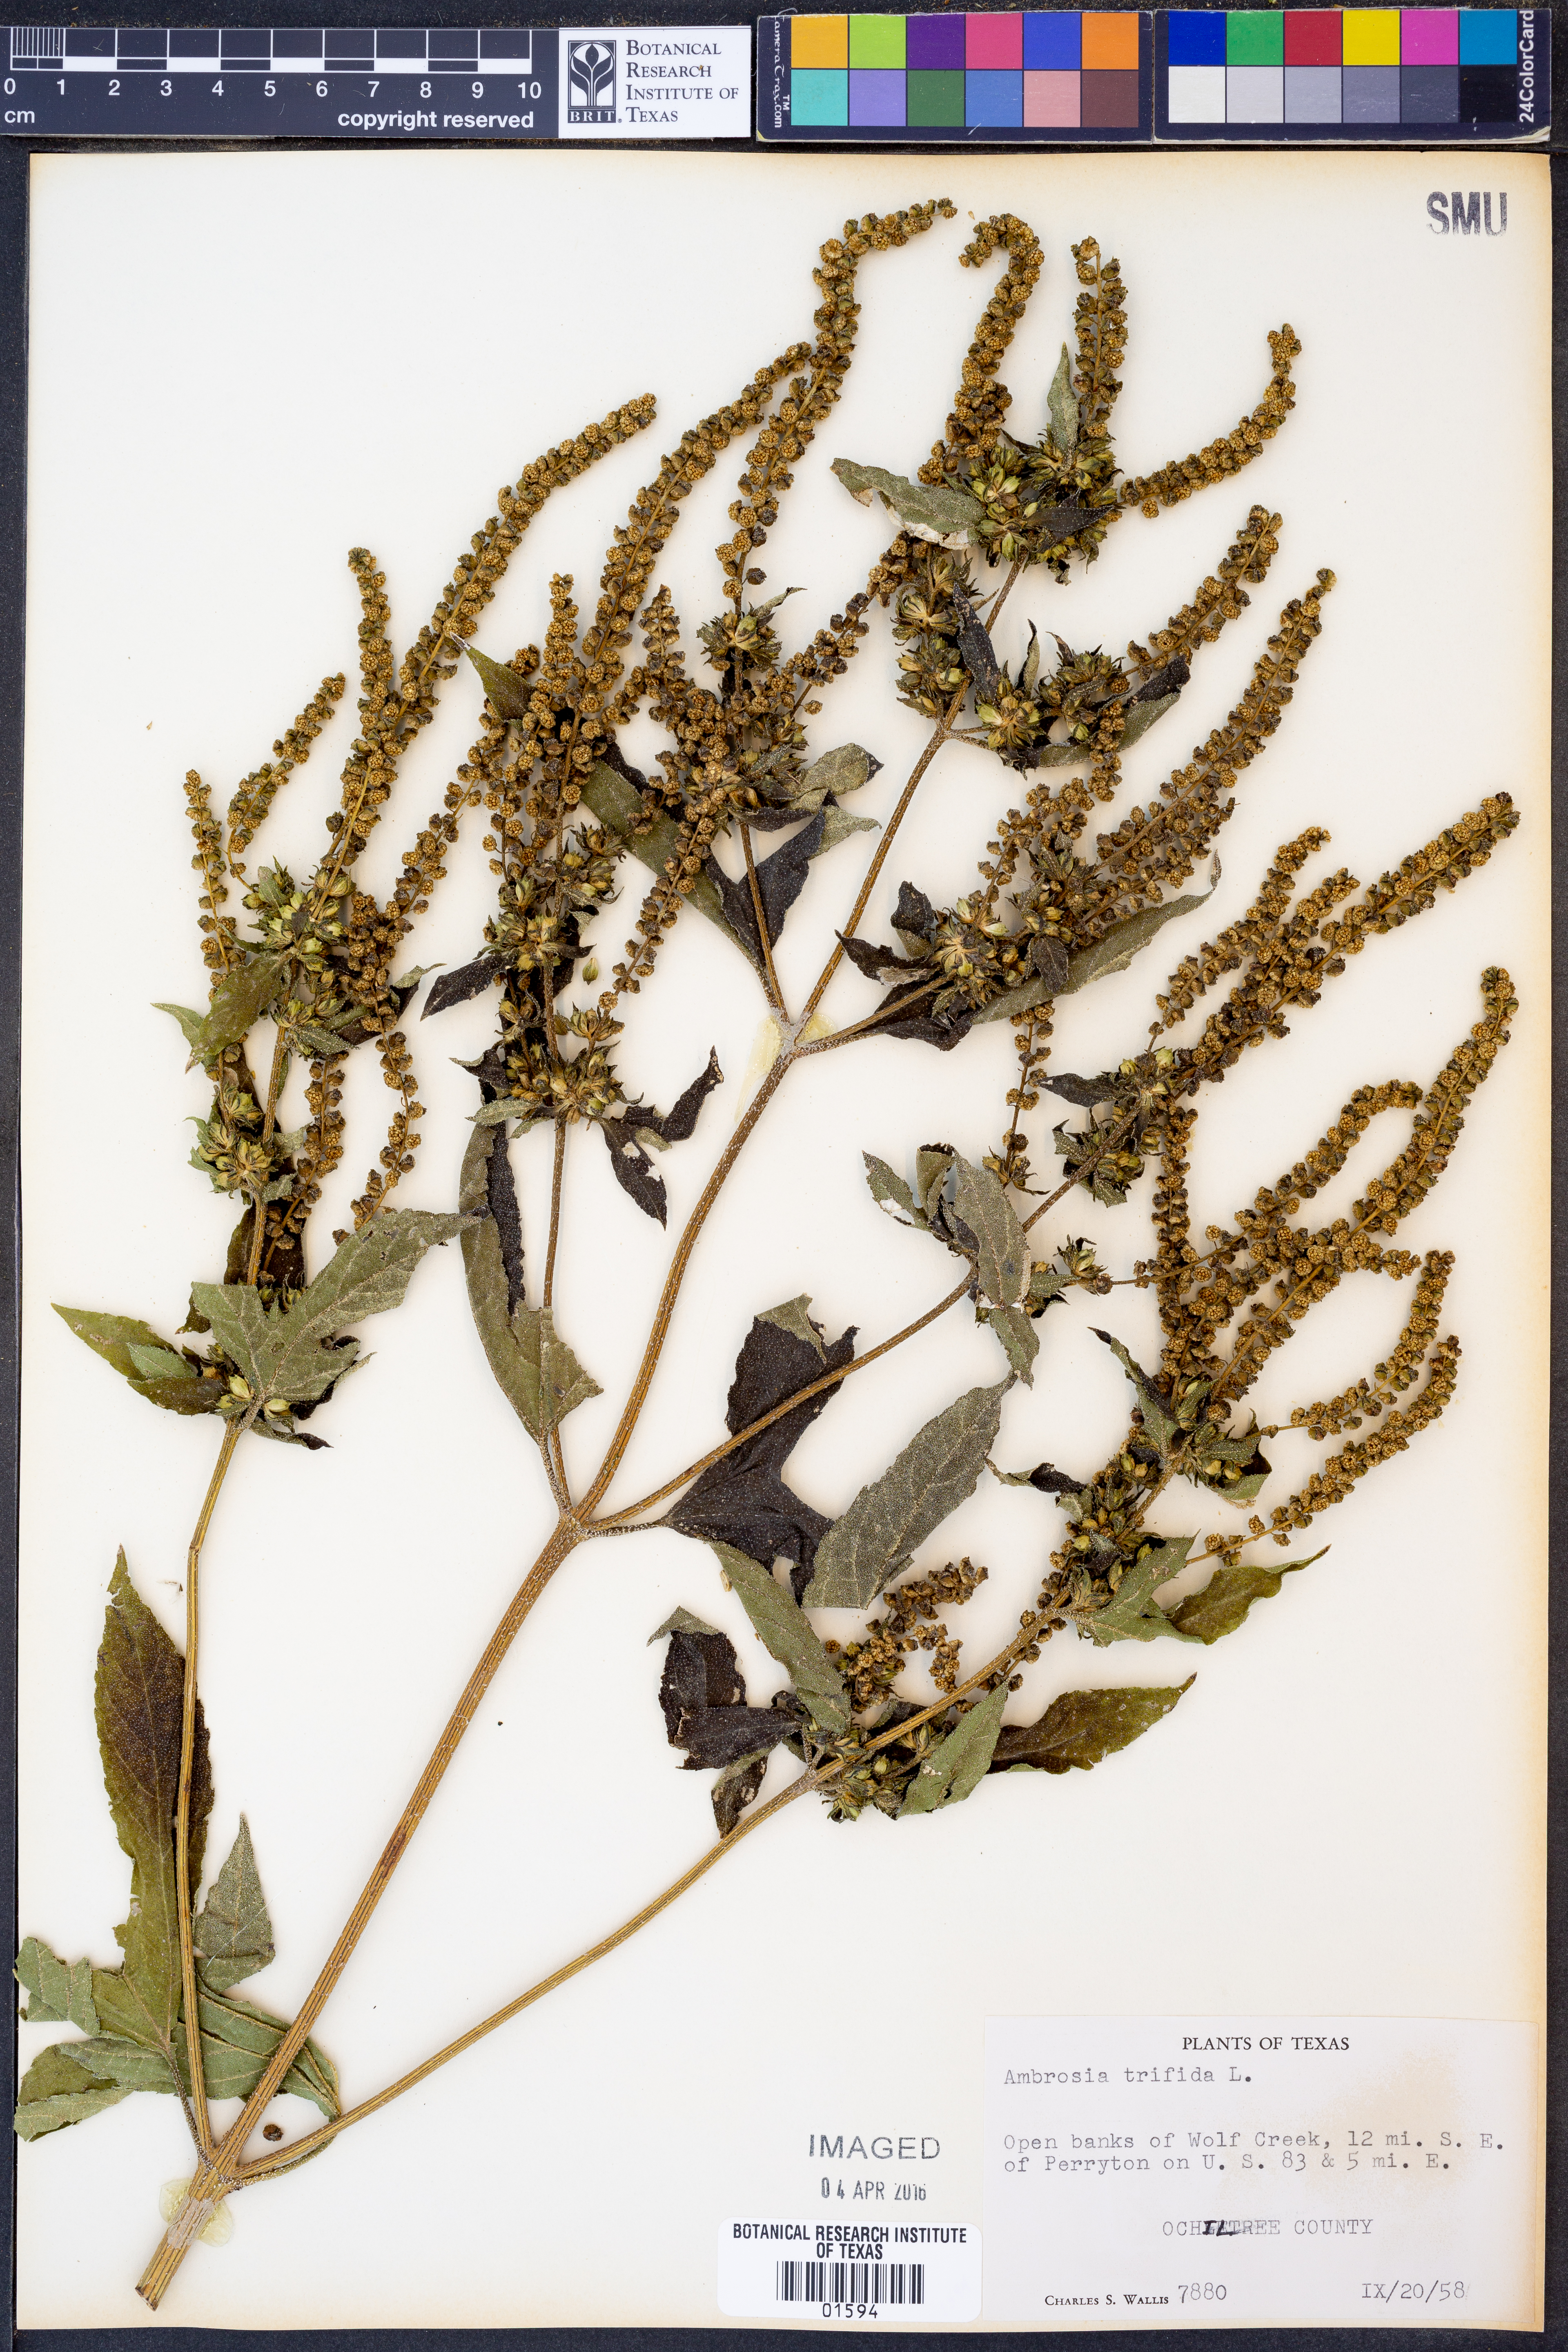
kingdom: Plantae
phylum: Tracheophyta
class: Magnoliopsida
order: Asterales
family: Asteraceae
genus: Ambrosia
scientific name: Ambrosia trifida
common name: Giant ragweed
